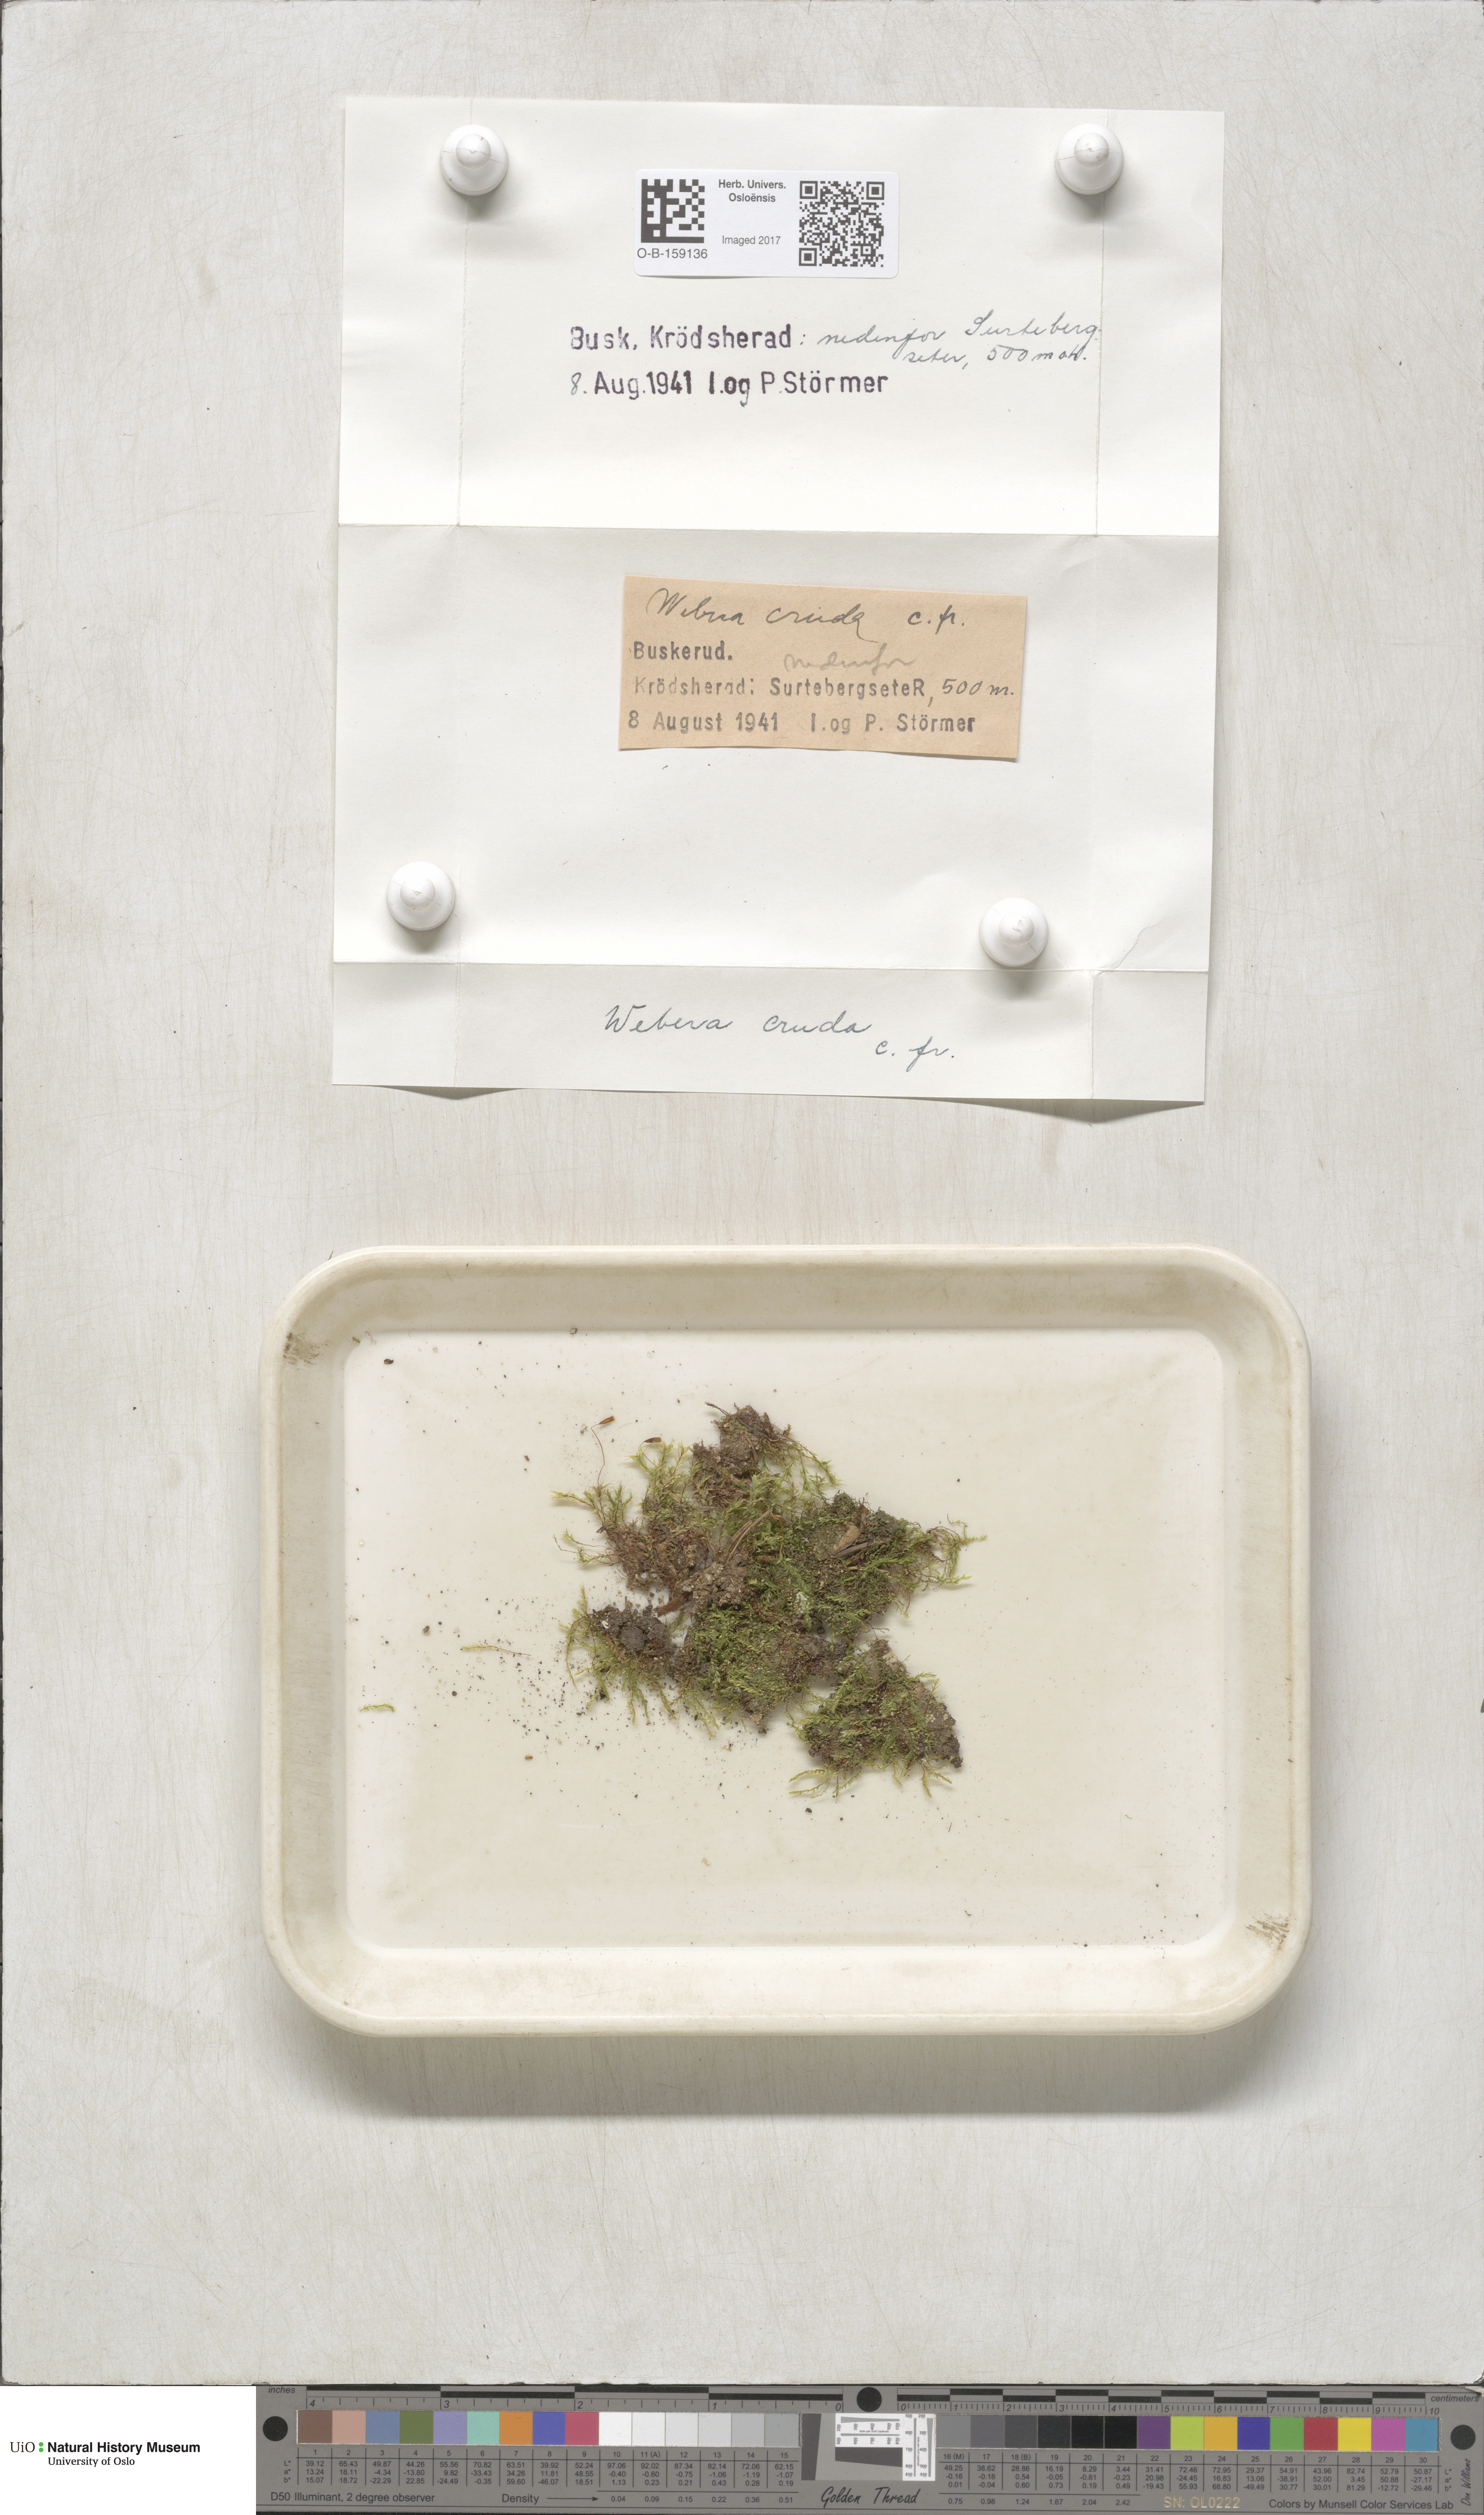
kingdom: Plantae
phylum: Bryophyta
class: Bryopsida
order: Bryales
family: Mniaceae
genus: Pohlia
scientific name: Pohlia cruda
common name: Opal nodding moss
